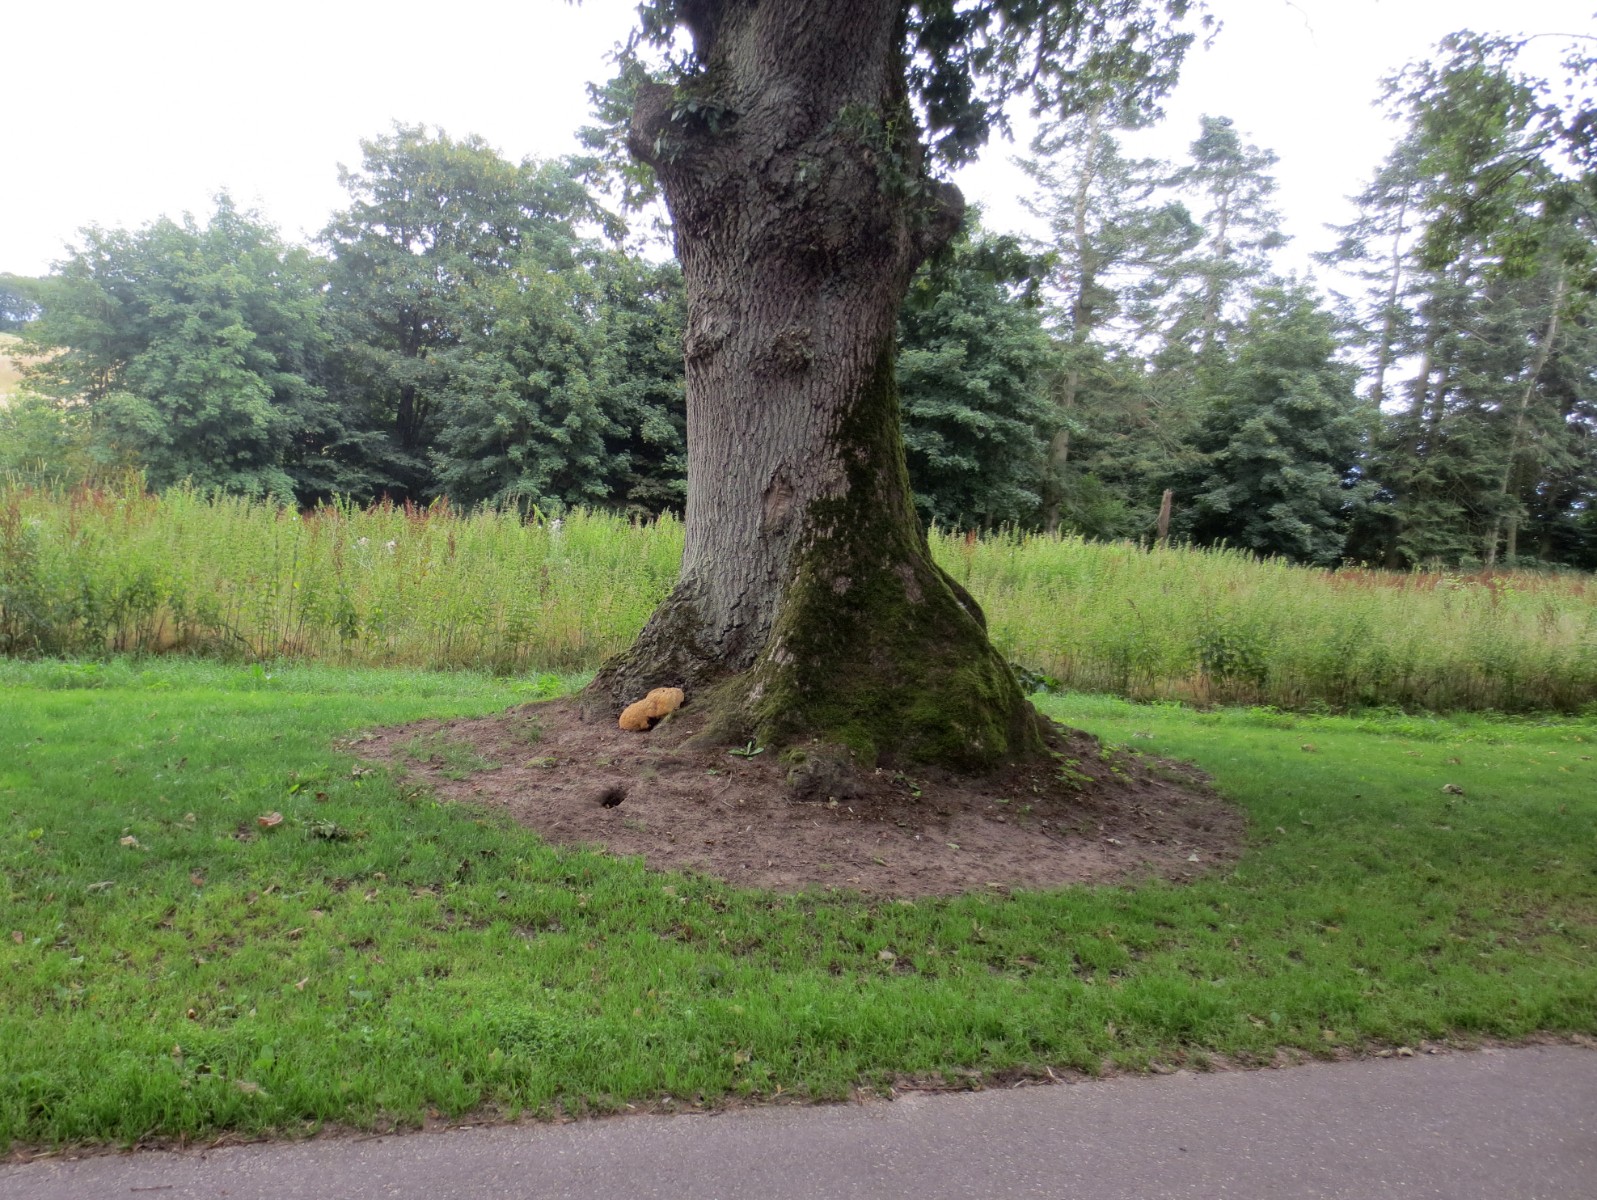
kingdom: Fungi
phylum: Basidiomycota
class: Agaricomycetes
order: Hymenochaetales
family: Hymenochaetaceae
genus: Pseudoinonotus
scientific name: Pseudoinonotus dryadeus
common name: ege-spejlporesvamp
